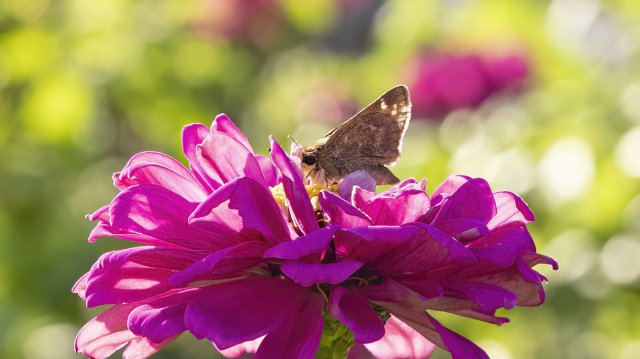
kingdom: Animalia
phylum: Arthropoda
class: Insecta
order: Lepidoptera
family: Hesperiidae
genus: Atalopedes
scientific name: Atalopedes campestris
